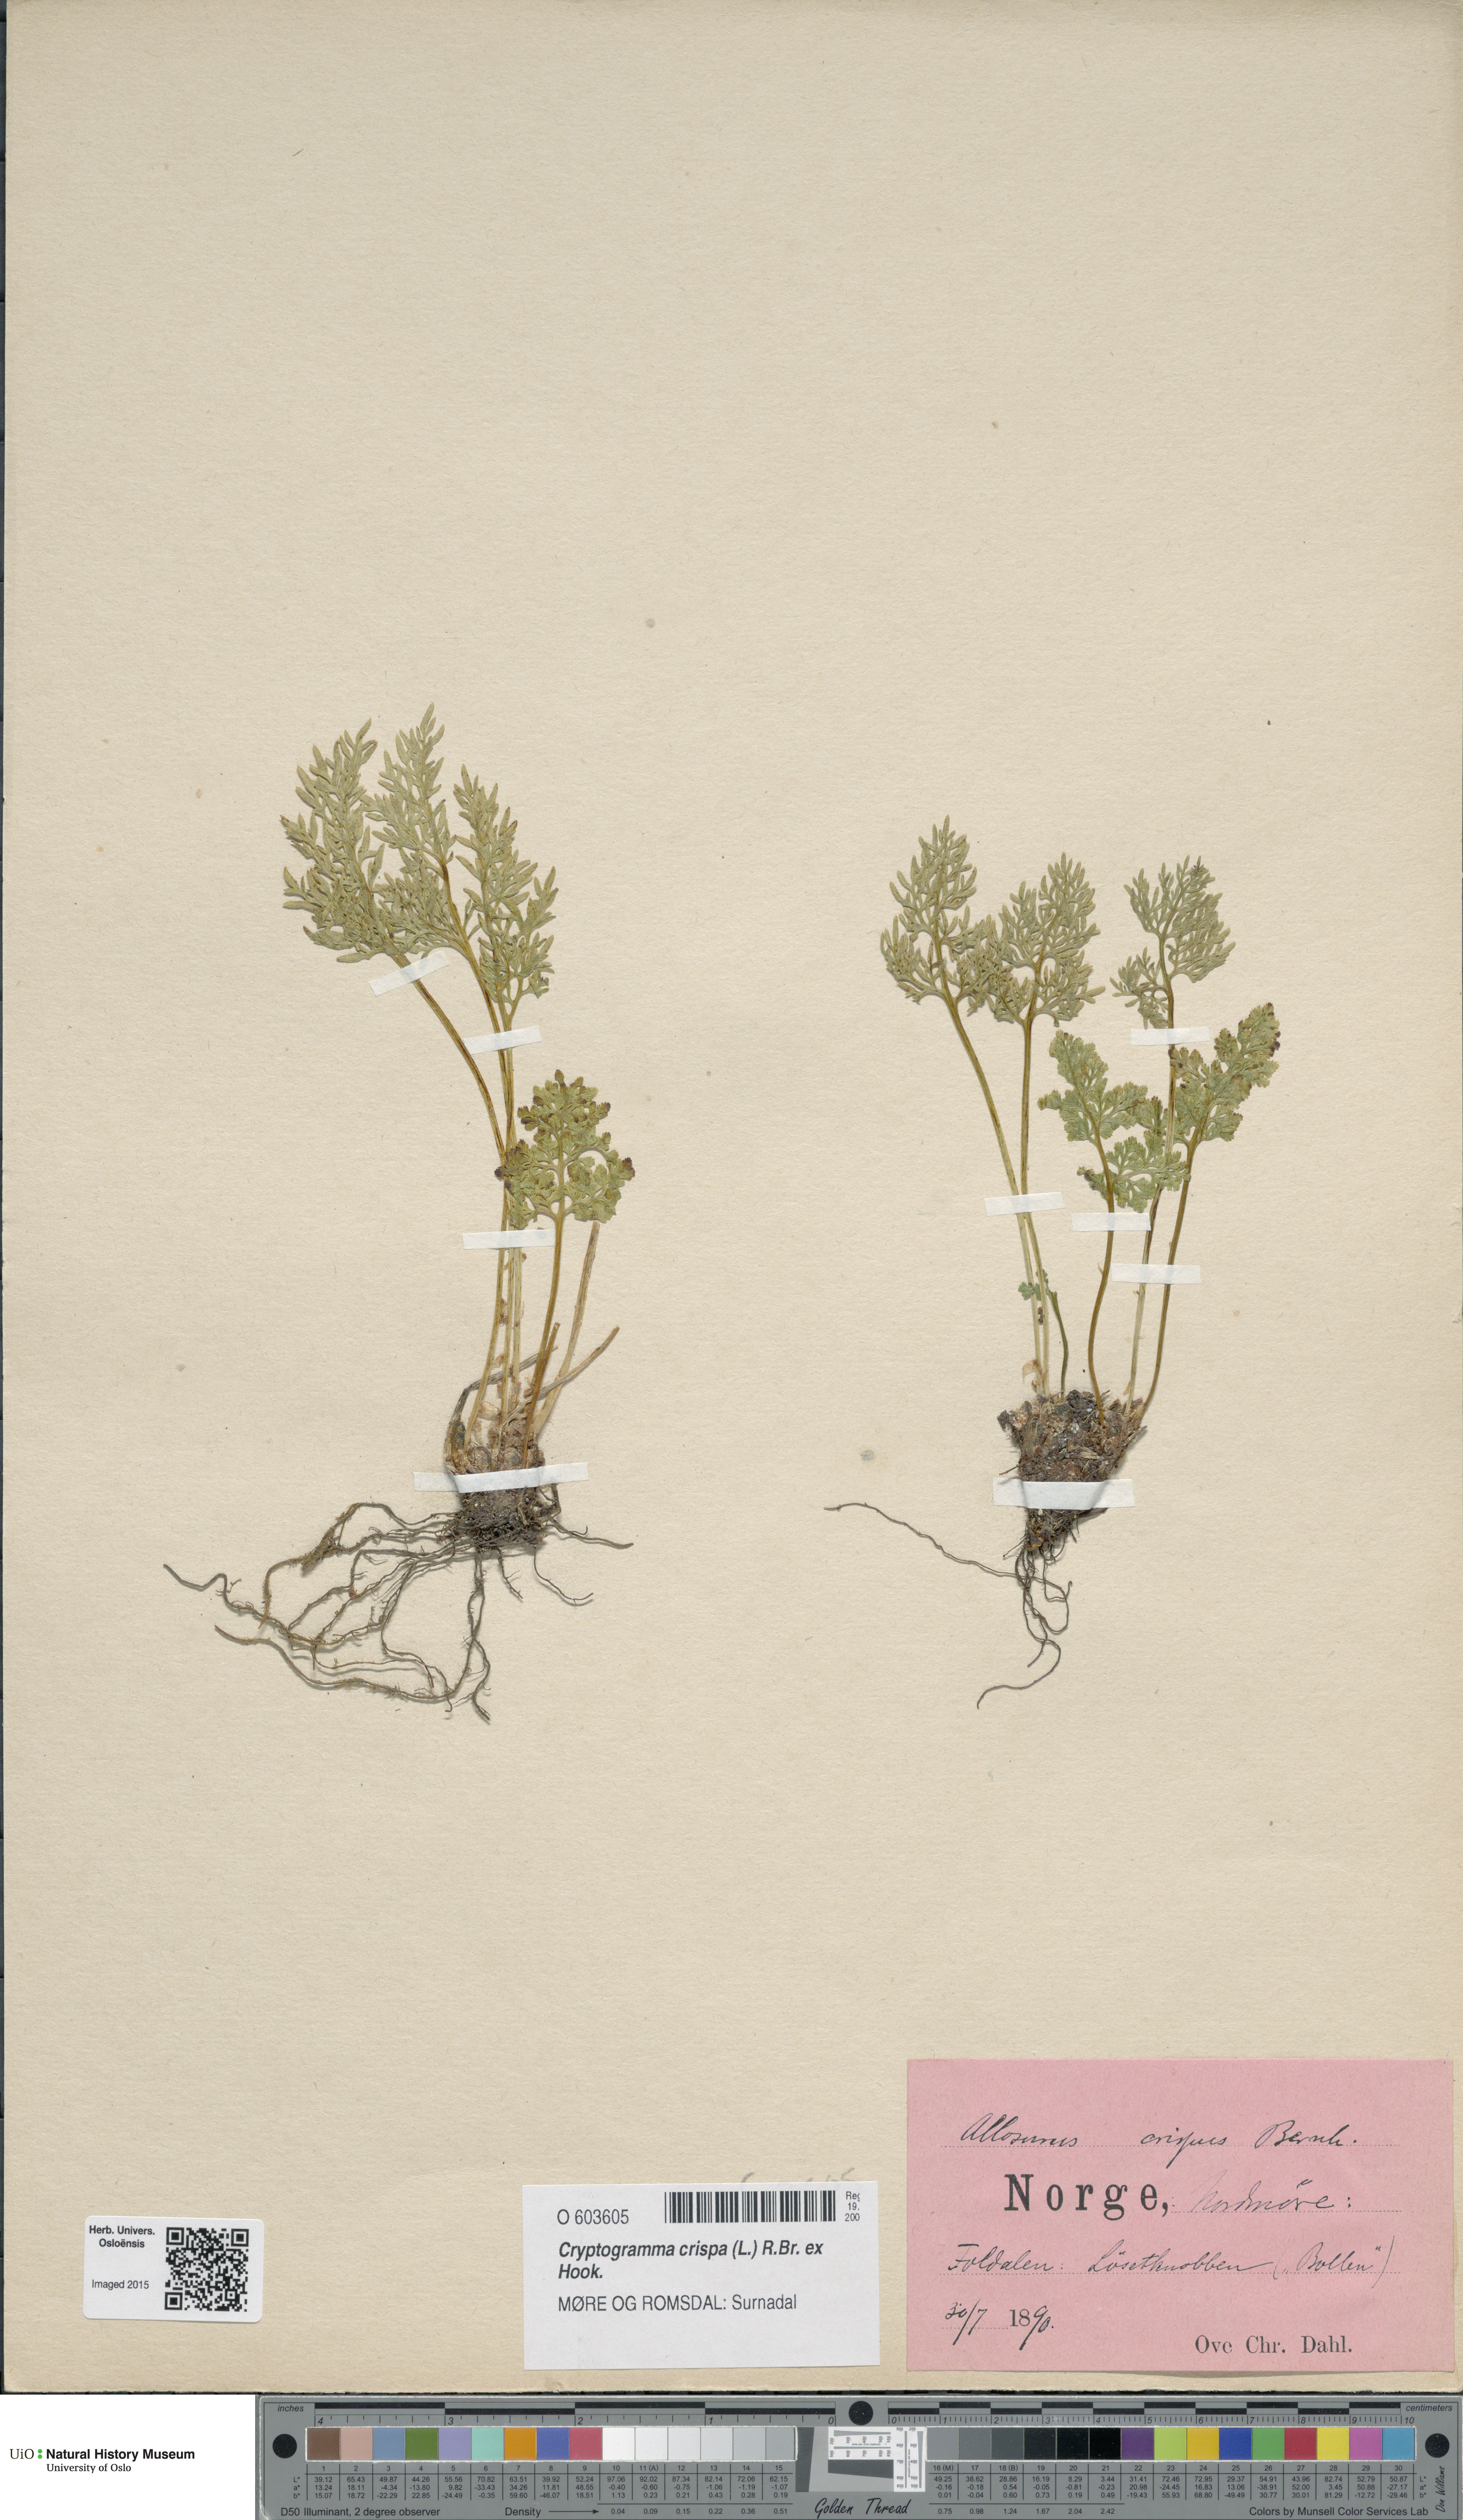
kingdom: Plantae
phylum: Tracheophyta
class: Polypodiopsida
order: Polypodiales
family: Pteridaceae
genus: Cryptogramma
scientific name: Cryptogramma crispa
